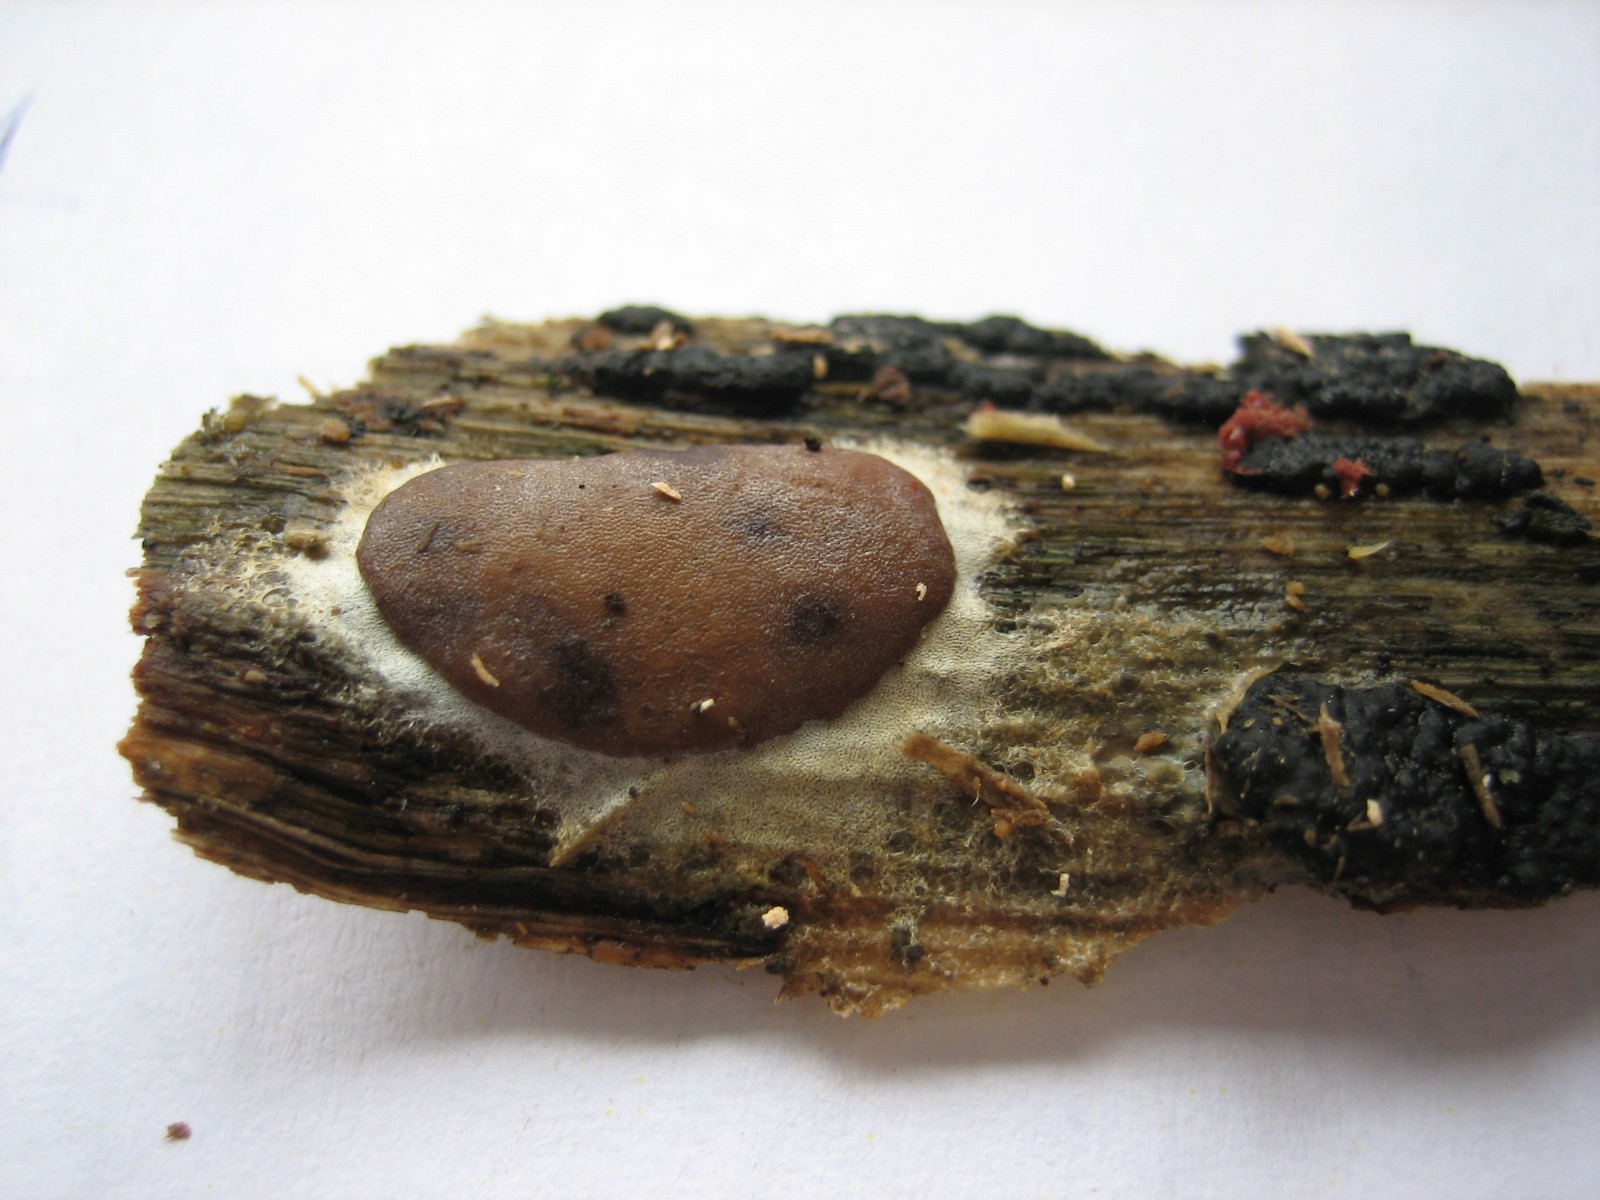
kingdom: Protozoa
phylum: Mycetozoa
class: Myxomycetes
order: Trichiales
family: Dictydiaethaliaceae
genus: Dictydiaethalium
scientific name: Dictydiaethalium plumbeum
